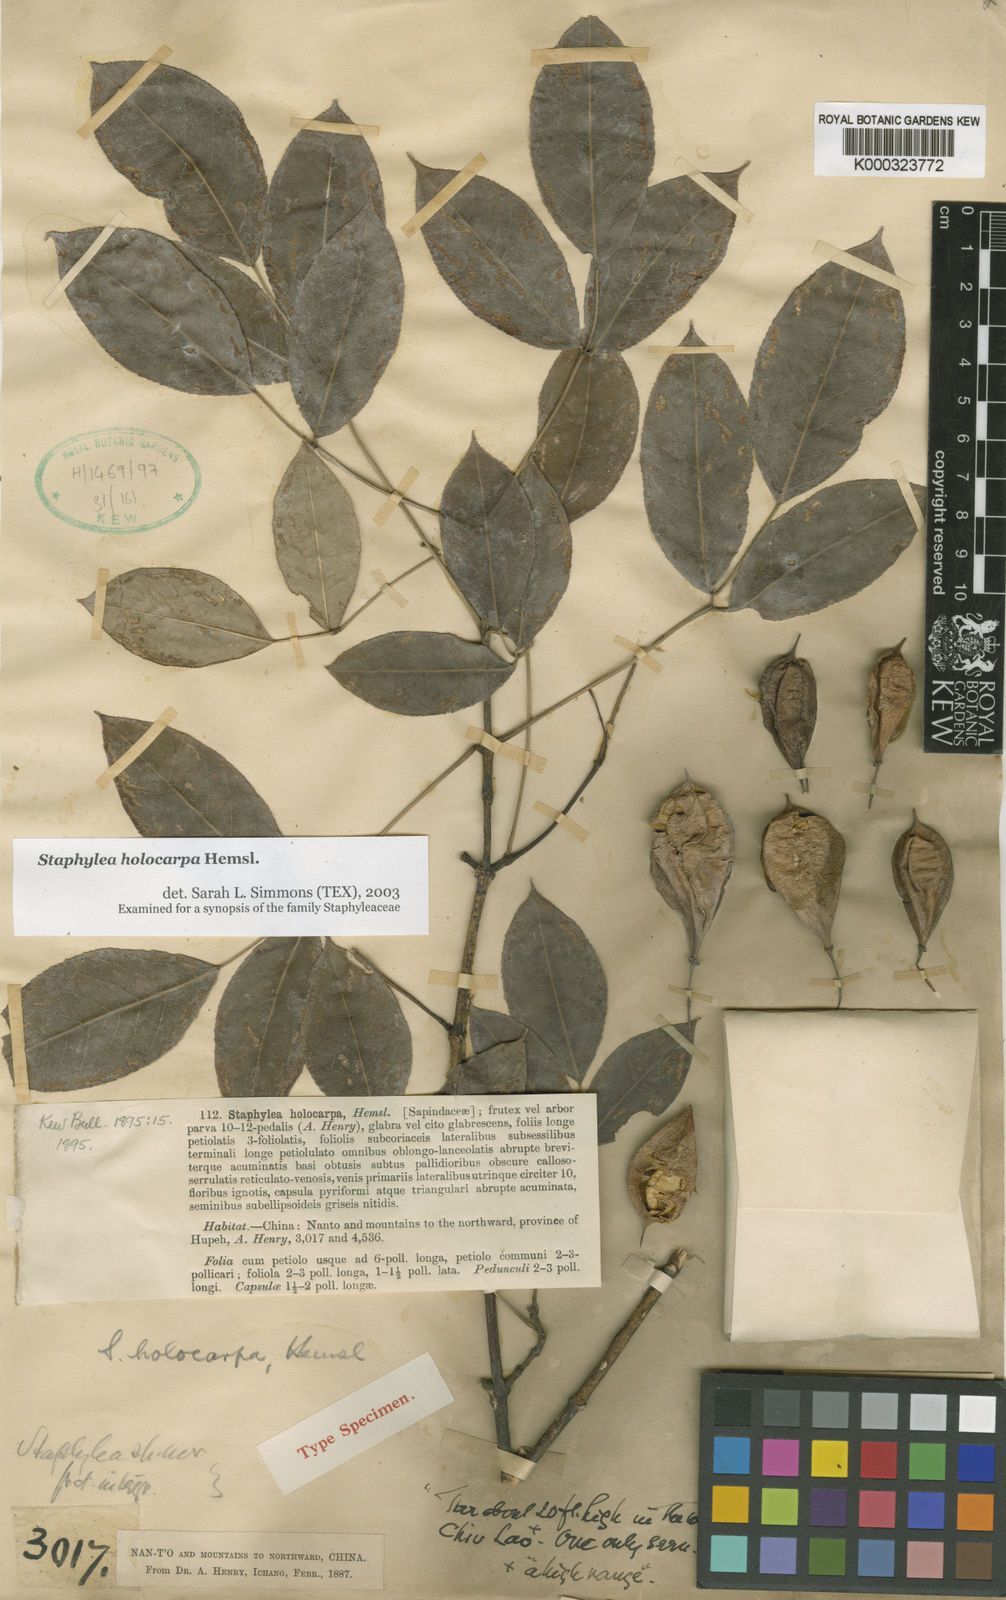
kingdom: Plantae
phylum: Tracheophyta
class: Magnoliopsida
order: Crossosomatales
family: Staphyleaceae
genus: Staphylea
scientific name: Staphylea holocarpa
